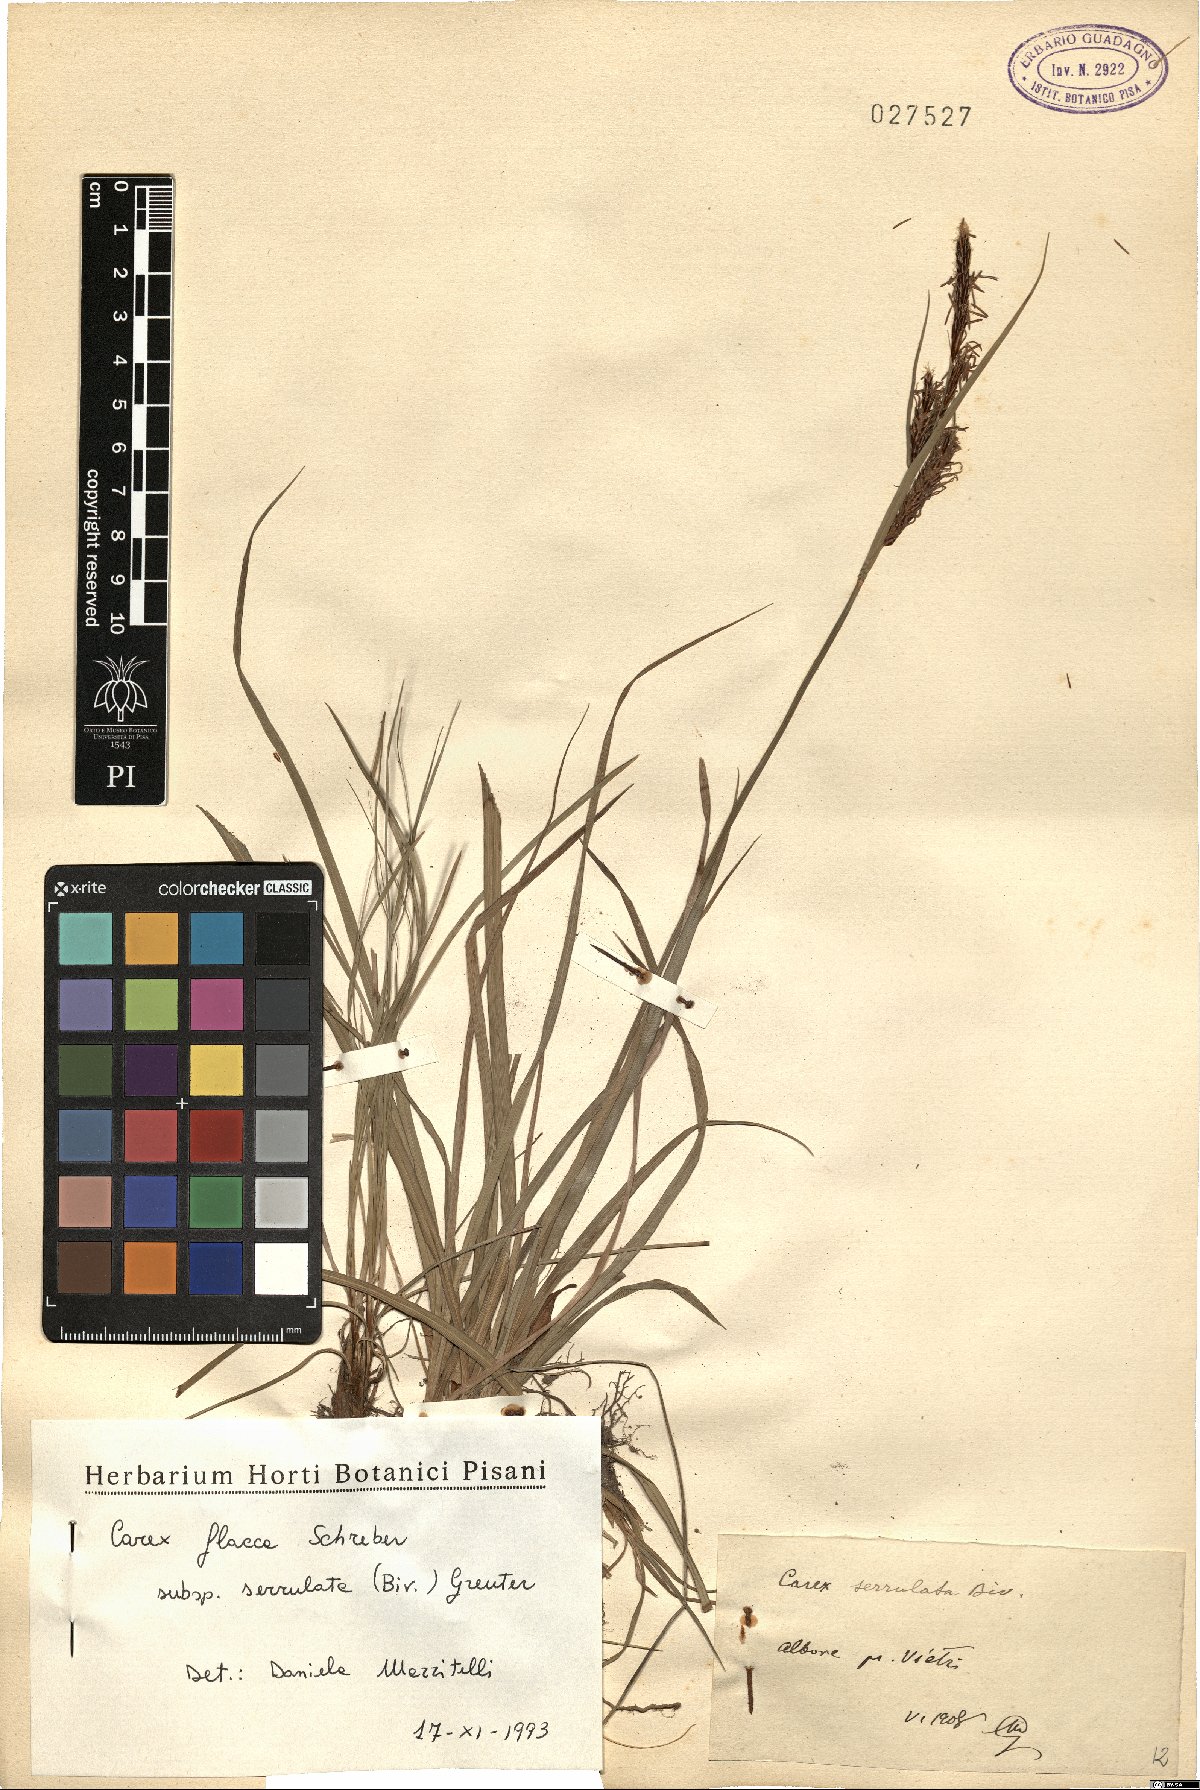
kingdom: Plantae
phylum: Tracheophyta
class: Liliopsida
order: Poales
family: Cyperaceae
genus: Carex
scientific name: Carex flacca
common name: Glaucous sedge
